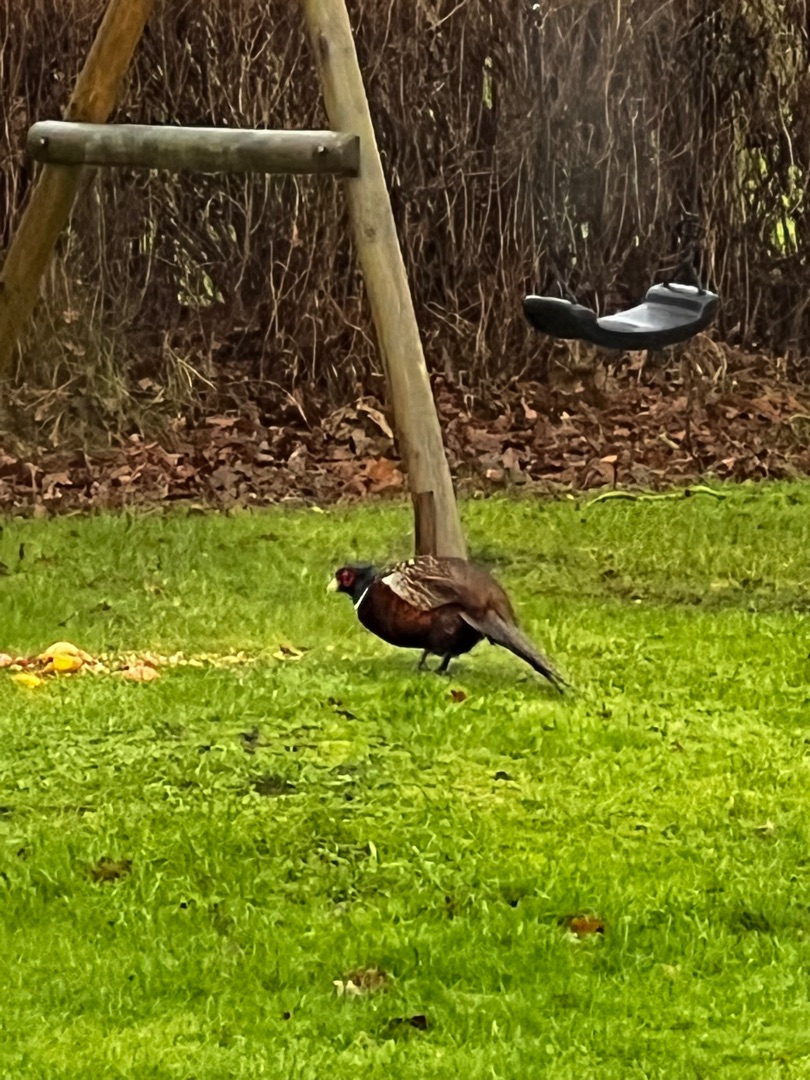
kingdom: Animalia
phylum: Chordata
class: Aves
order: Galliformes
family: Phasianidae
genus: Phasianus
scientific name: Phasianus colchicus
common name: Fasan
